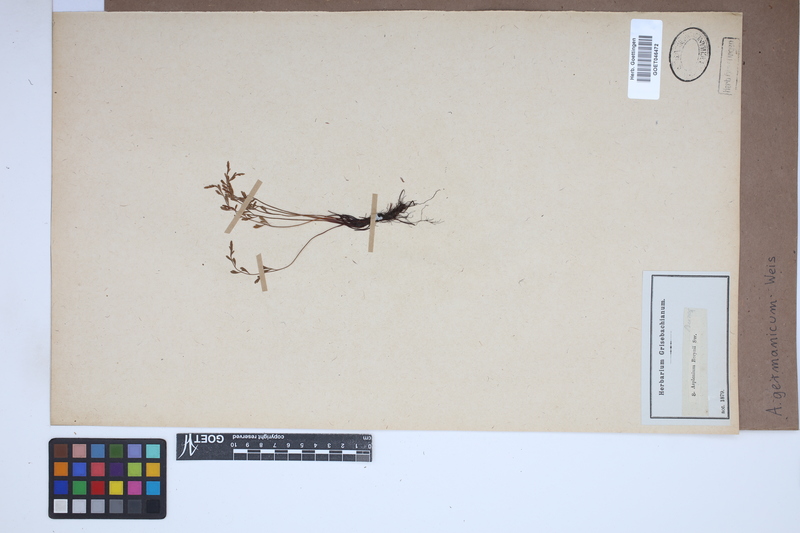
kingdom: Plantae
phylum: Tracheophyta
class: Polypodiopsida
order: Polypodiales
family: Aspleniaceae
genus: Asplenium
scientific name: Asplenium
